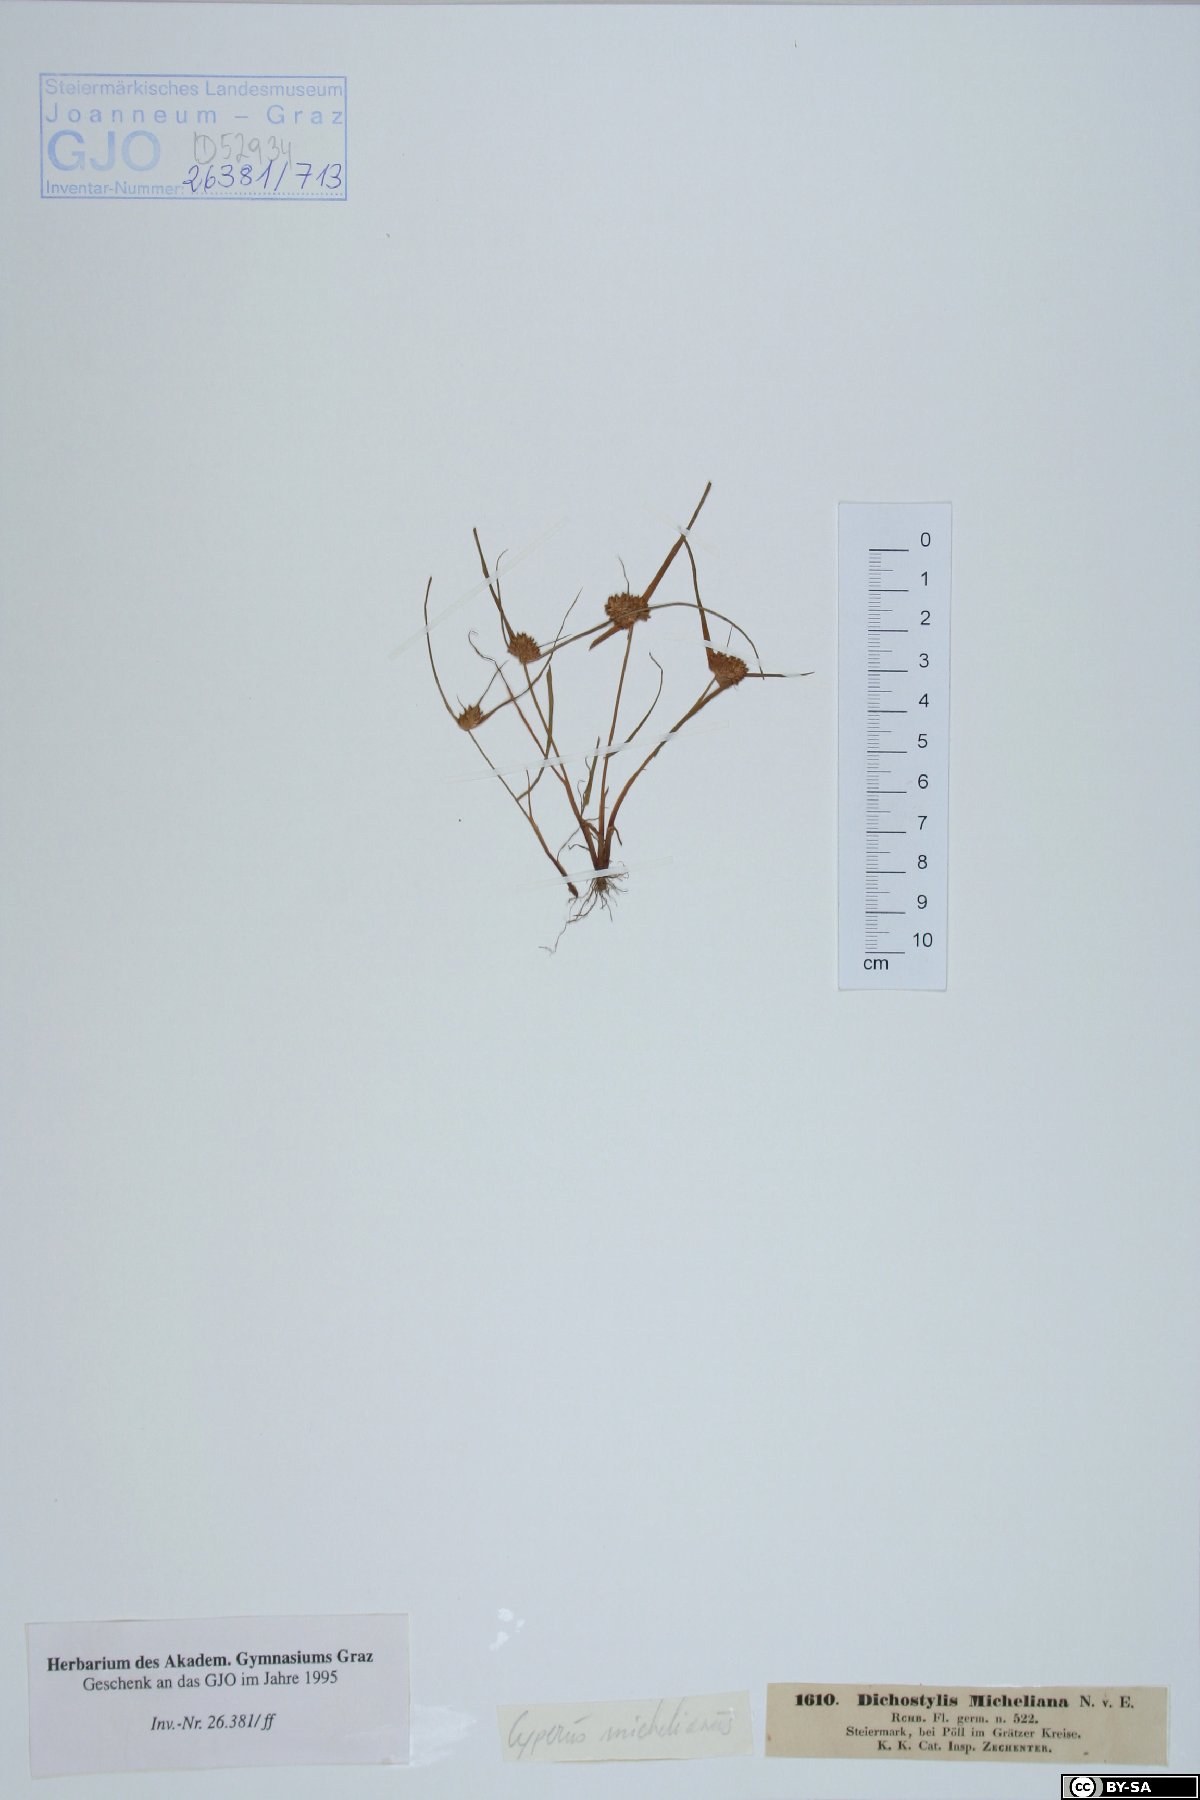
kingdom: Plantae
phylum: Tracheophyta
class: Liliopsida
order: Poales
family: Cyperaceae
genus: Cyperus
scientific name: Cyperus michelianus
